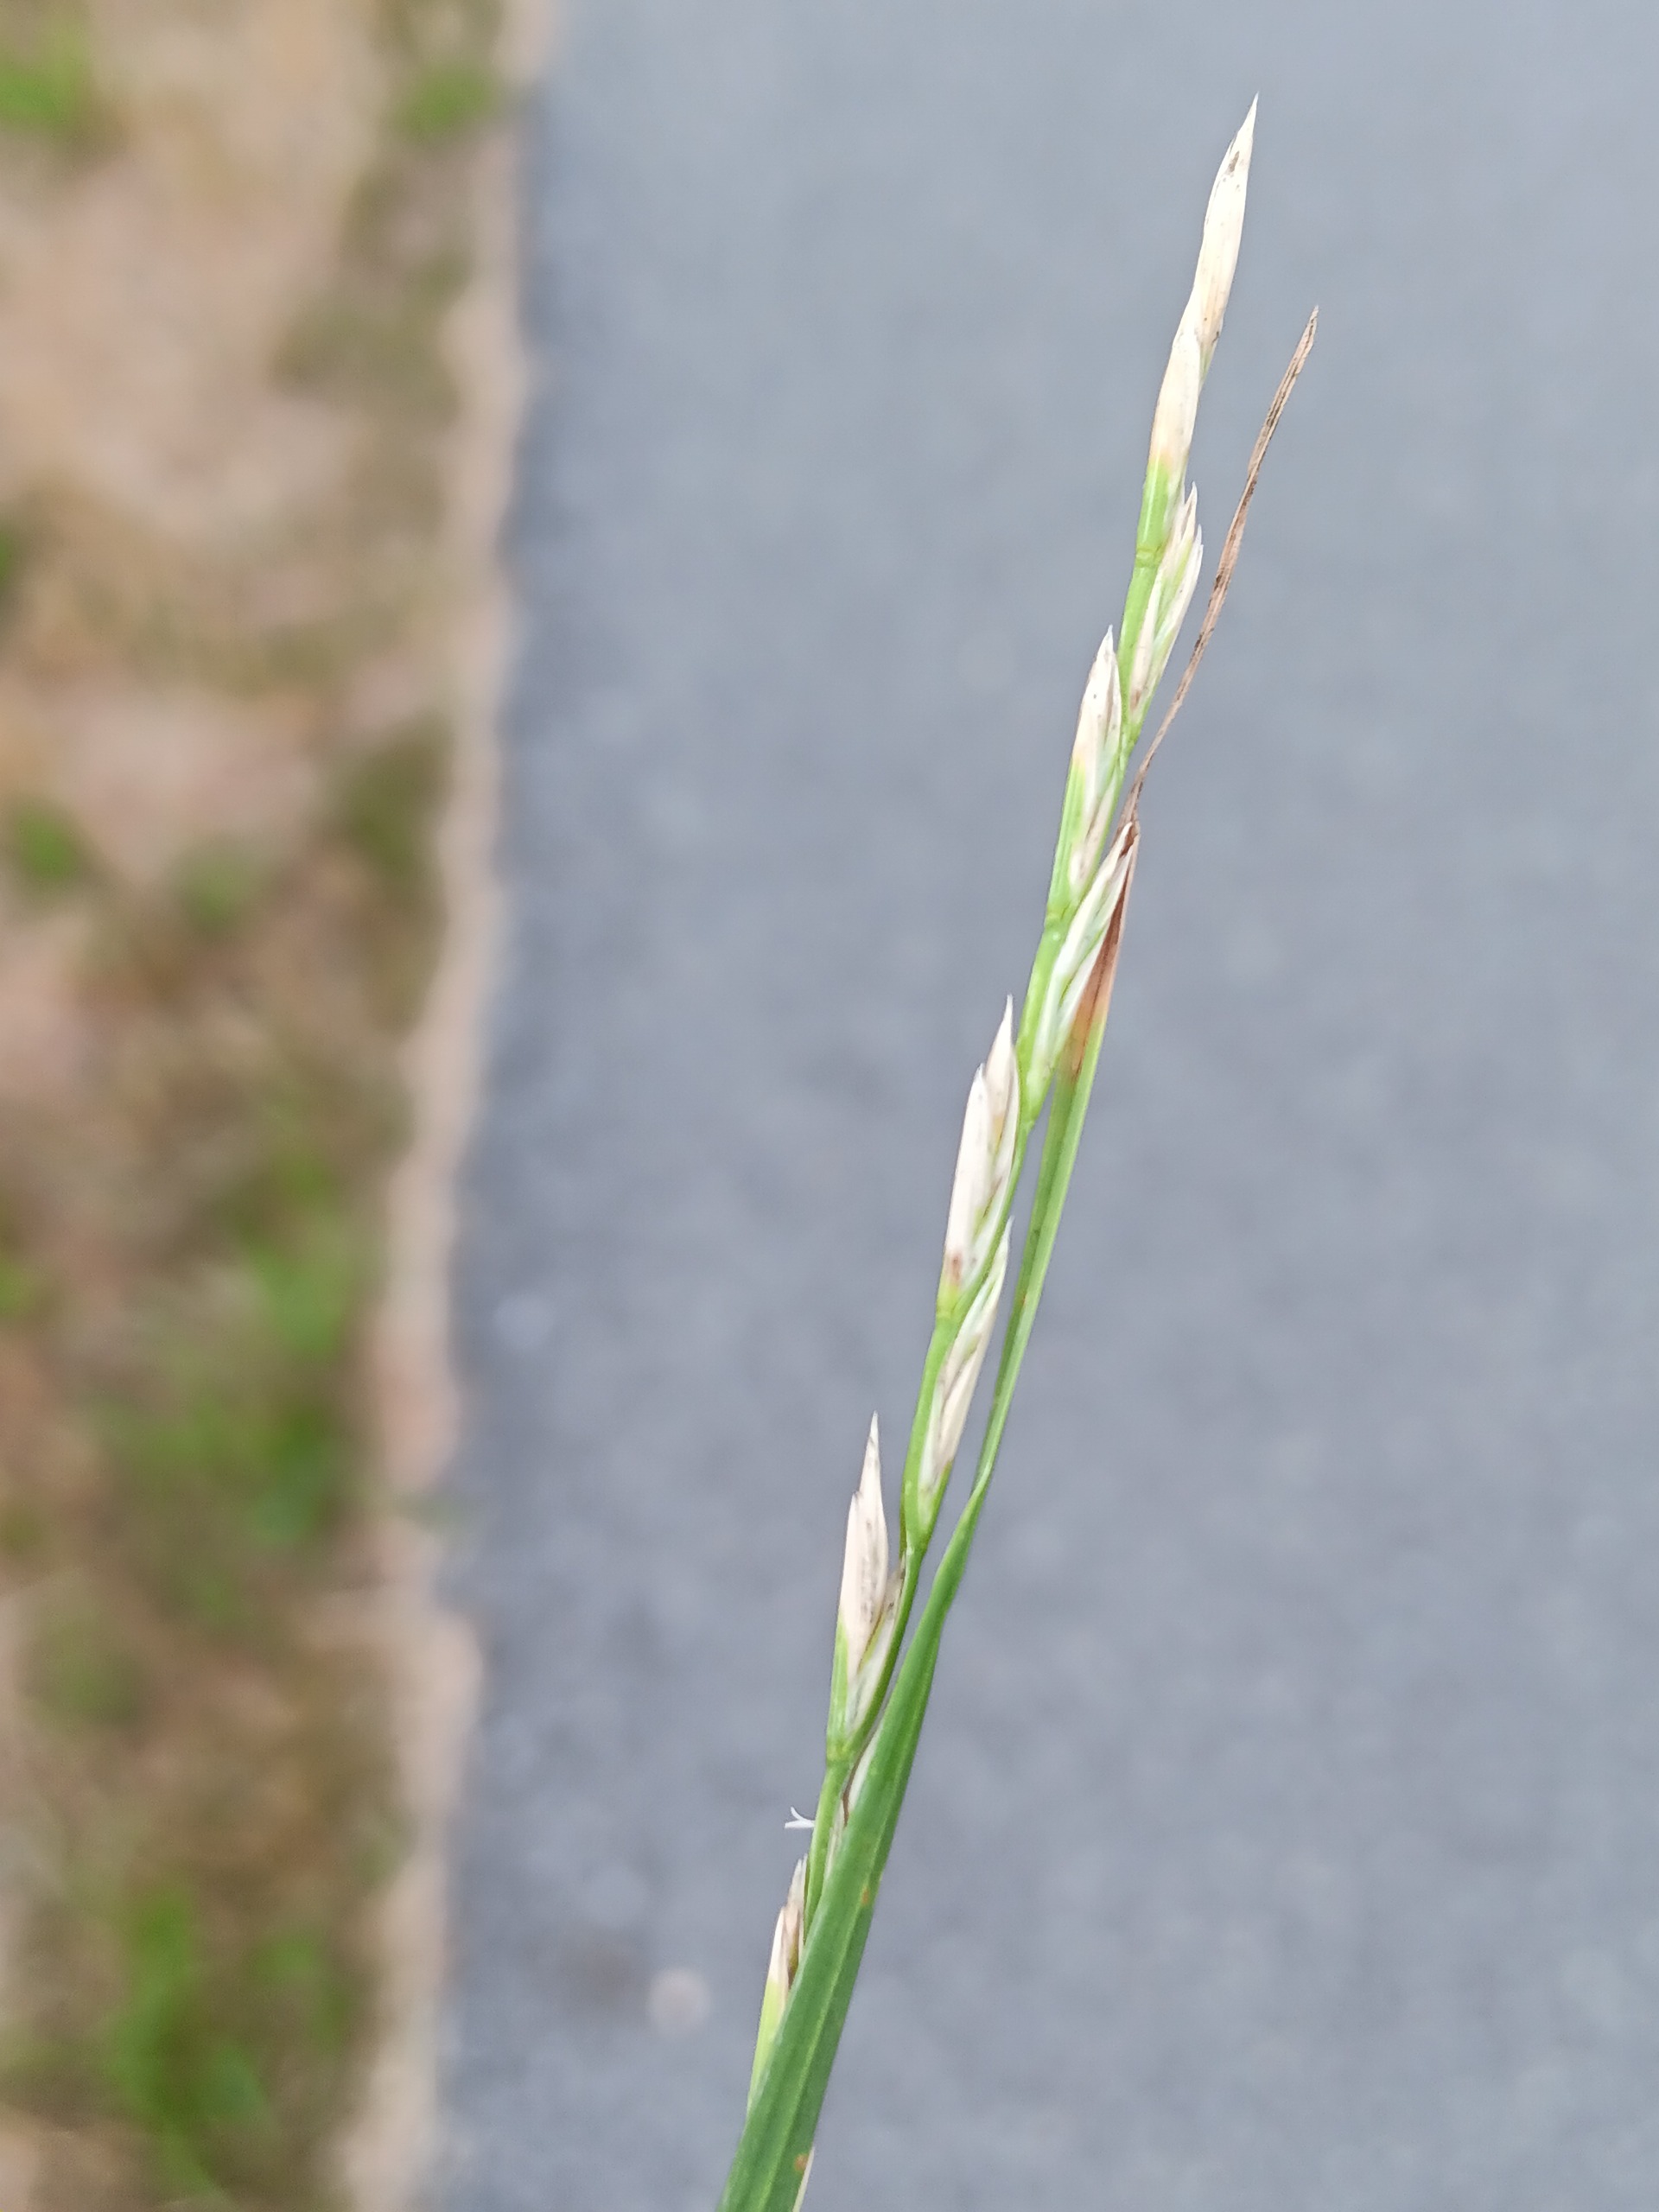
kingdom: Plantae
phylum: Tracheophyta
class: Liliopsida
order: Poales
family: Poaceae
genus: Lolium
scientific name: Lolium perenne
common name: Almindelig rajgræs
